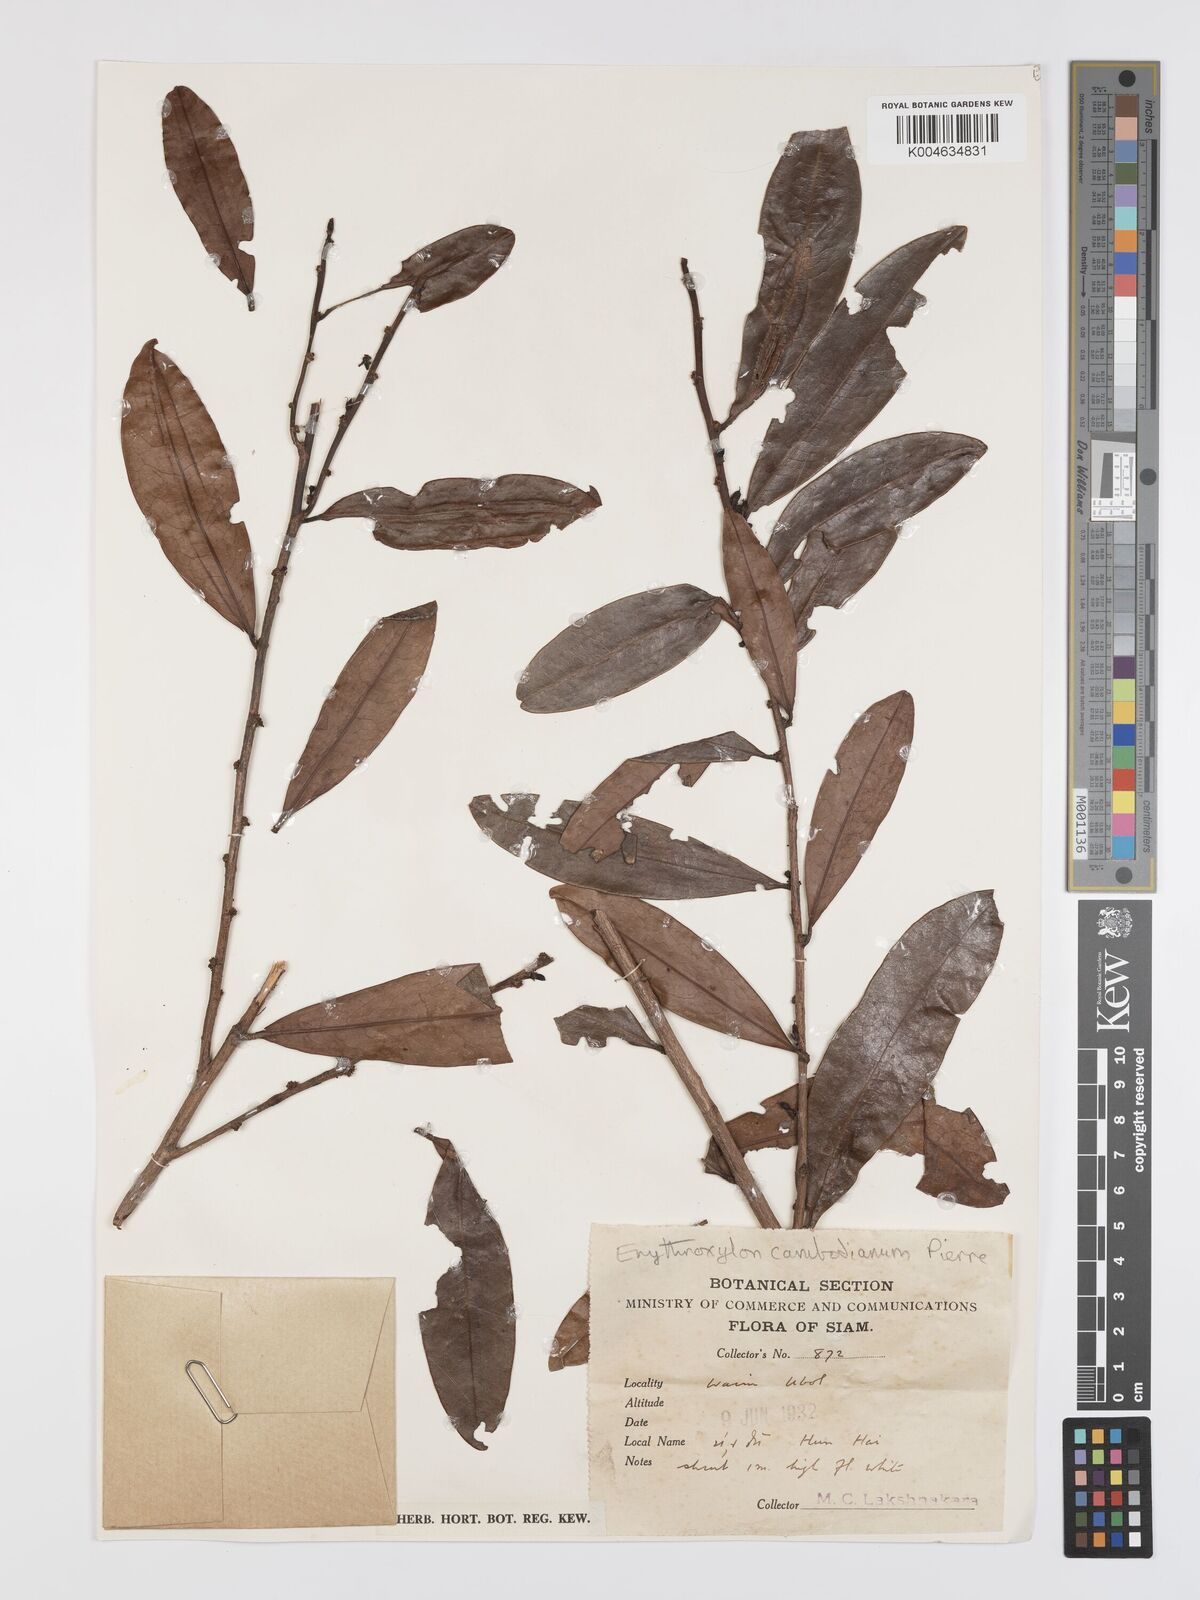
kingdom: Plantae
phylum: Tracheophyta
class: Magnoliopsida
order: Malpighiales
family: Erythroxylaceae
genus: Erythroxylum
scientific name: Erythroxylum cambodianum
